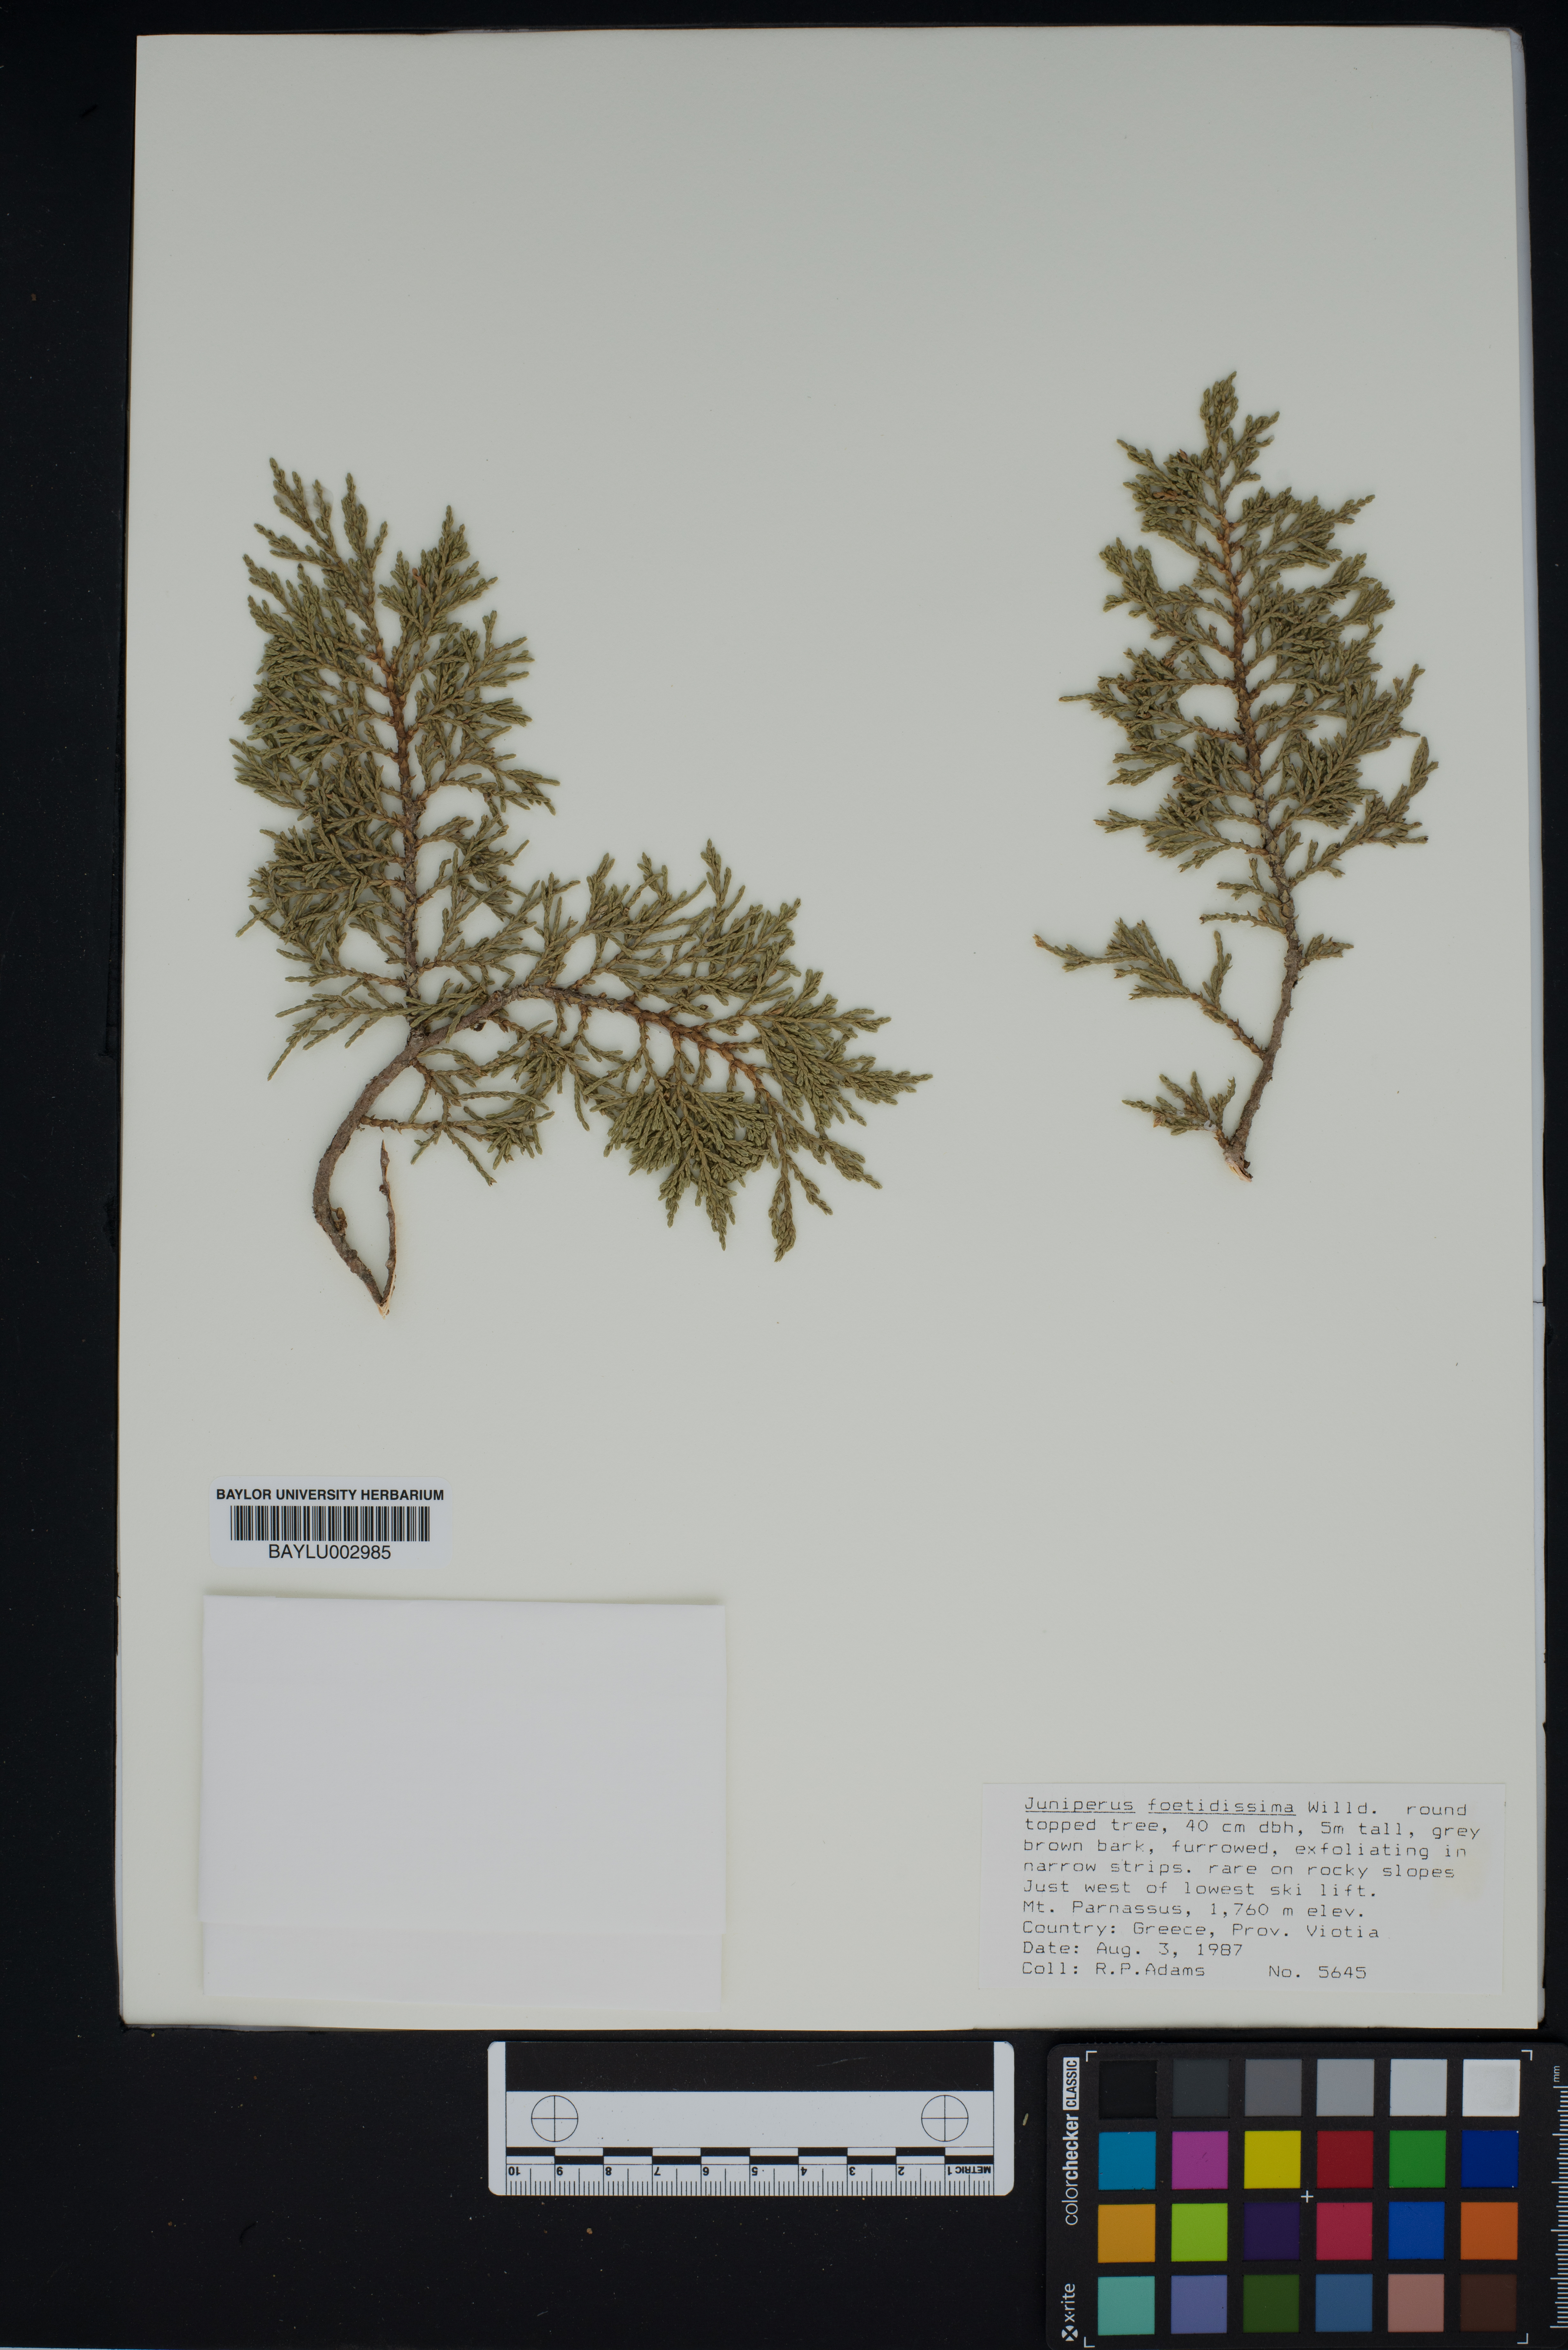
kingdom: Plantae
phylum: Tracheophyta
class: Pinopsida
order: Pinales
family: Cupressaceae
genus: Juniperus
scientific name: Juniperus foetidissima
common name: Stinking juniper
